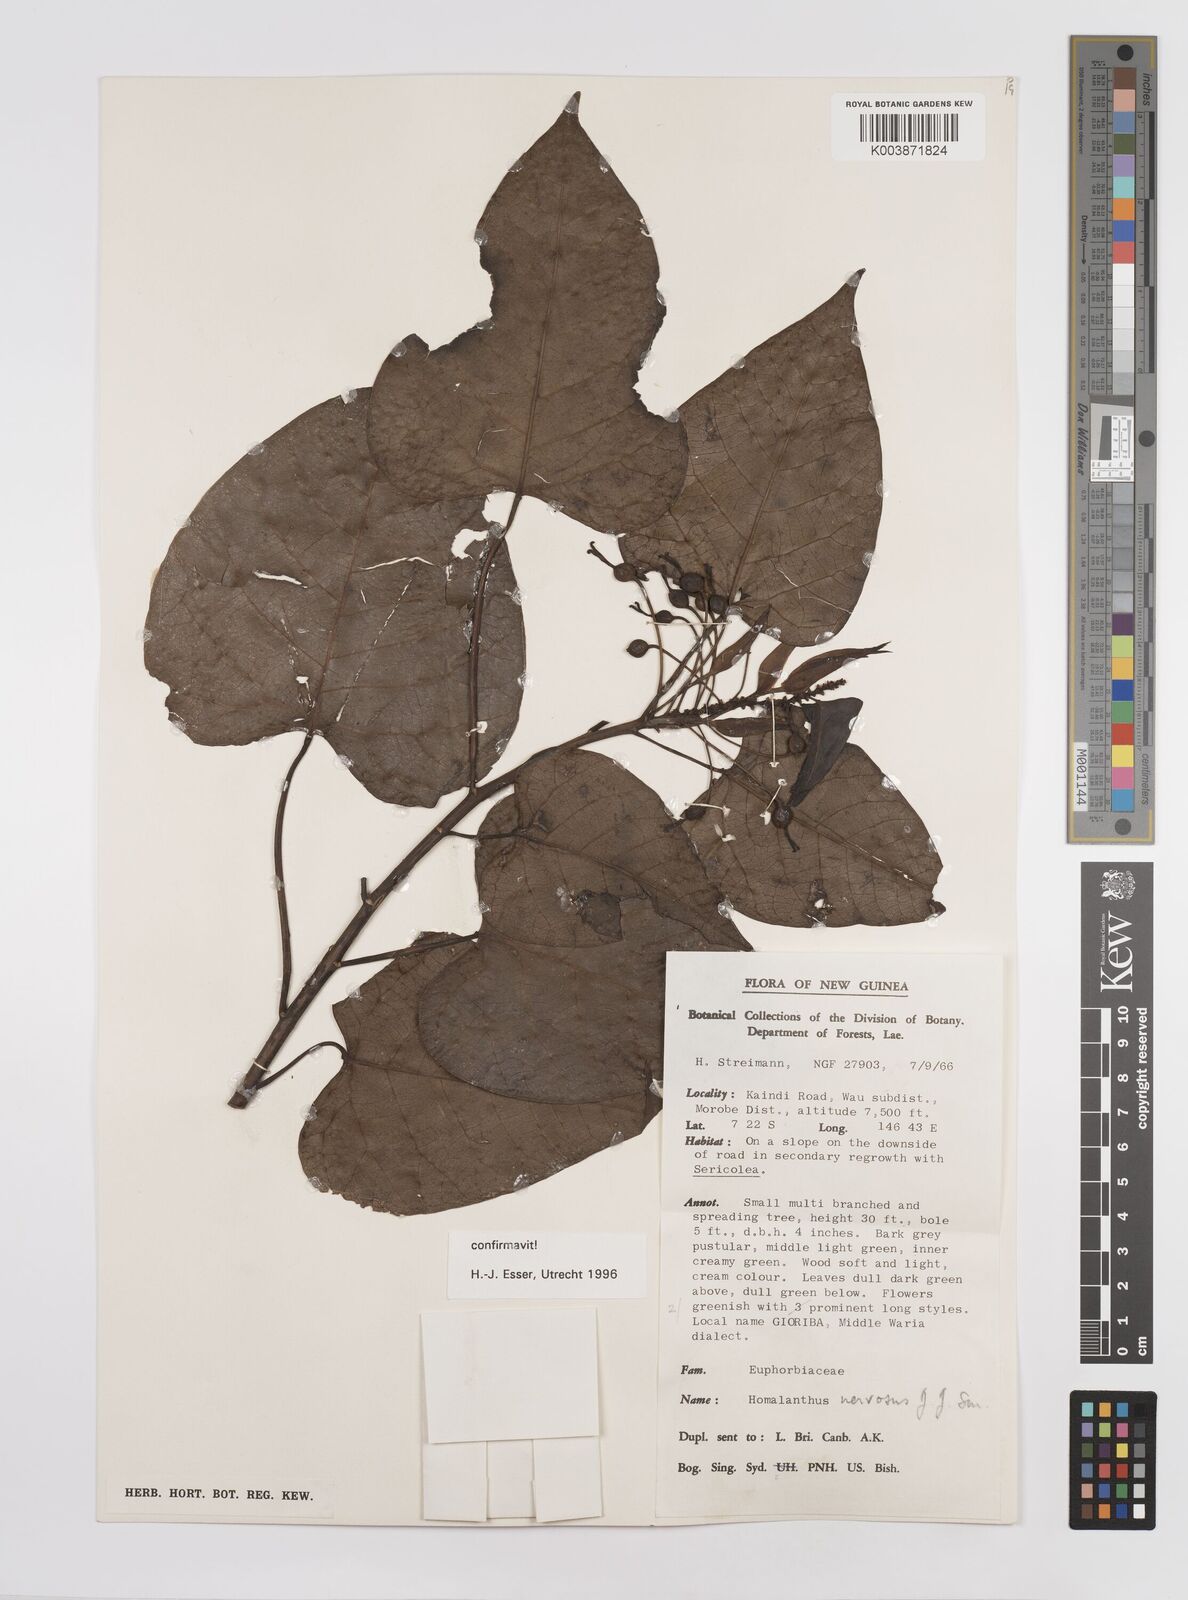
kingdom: Plantae
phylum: Tracheophyta
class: Magnoliopsida
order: Malpighiales
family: Euphorbiaceae
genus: Homalanthus
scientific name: Homalanthus nervosus
